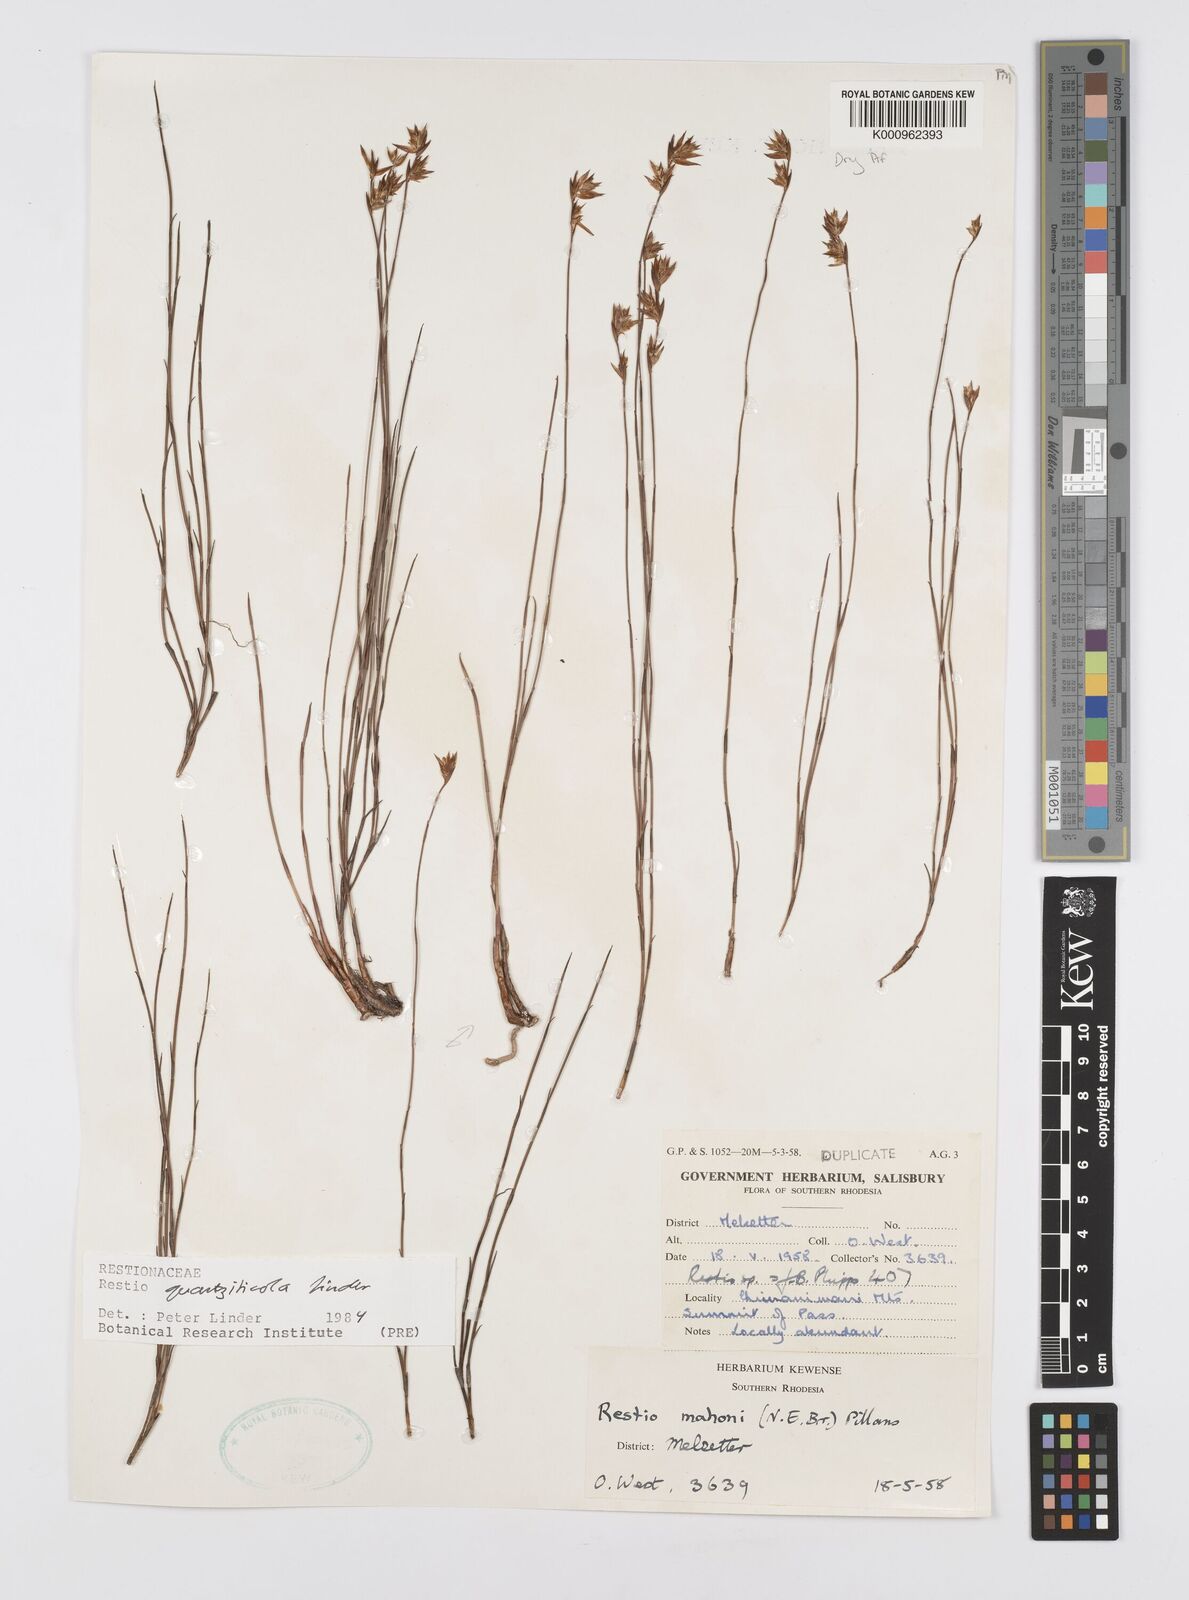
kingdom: Plantae
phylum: Tracheophyta
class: Liliopsida
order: Poales
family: Restionaceae
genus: Platycaulos
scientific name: Platycaulos quartziticola
